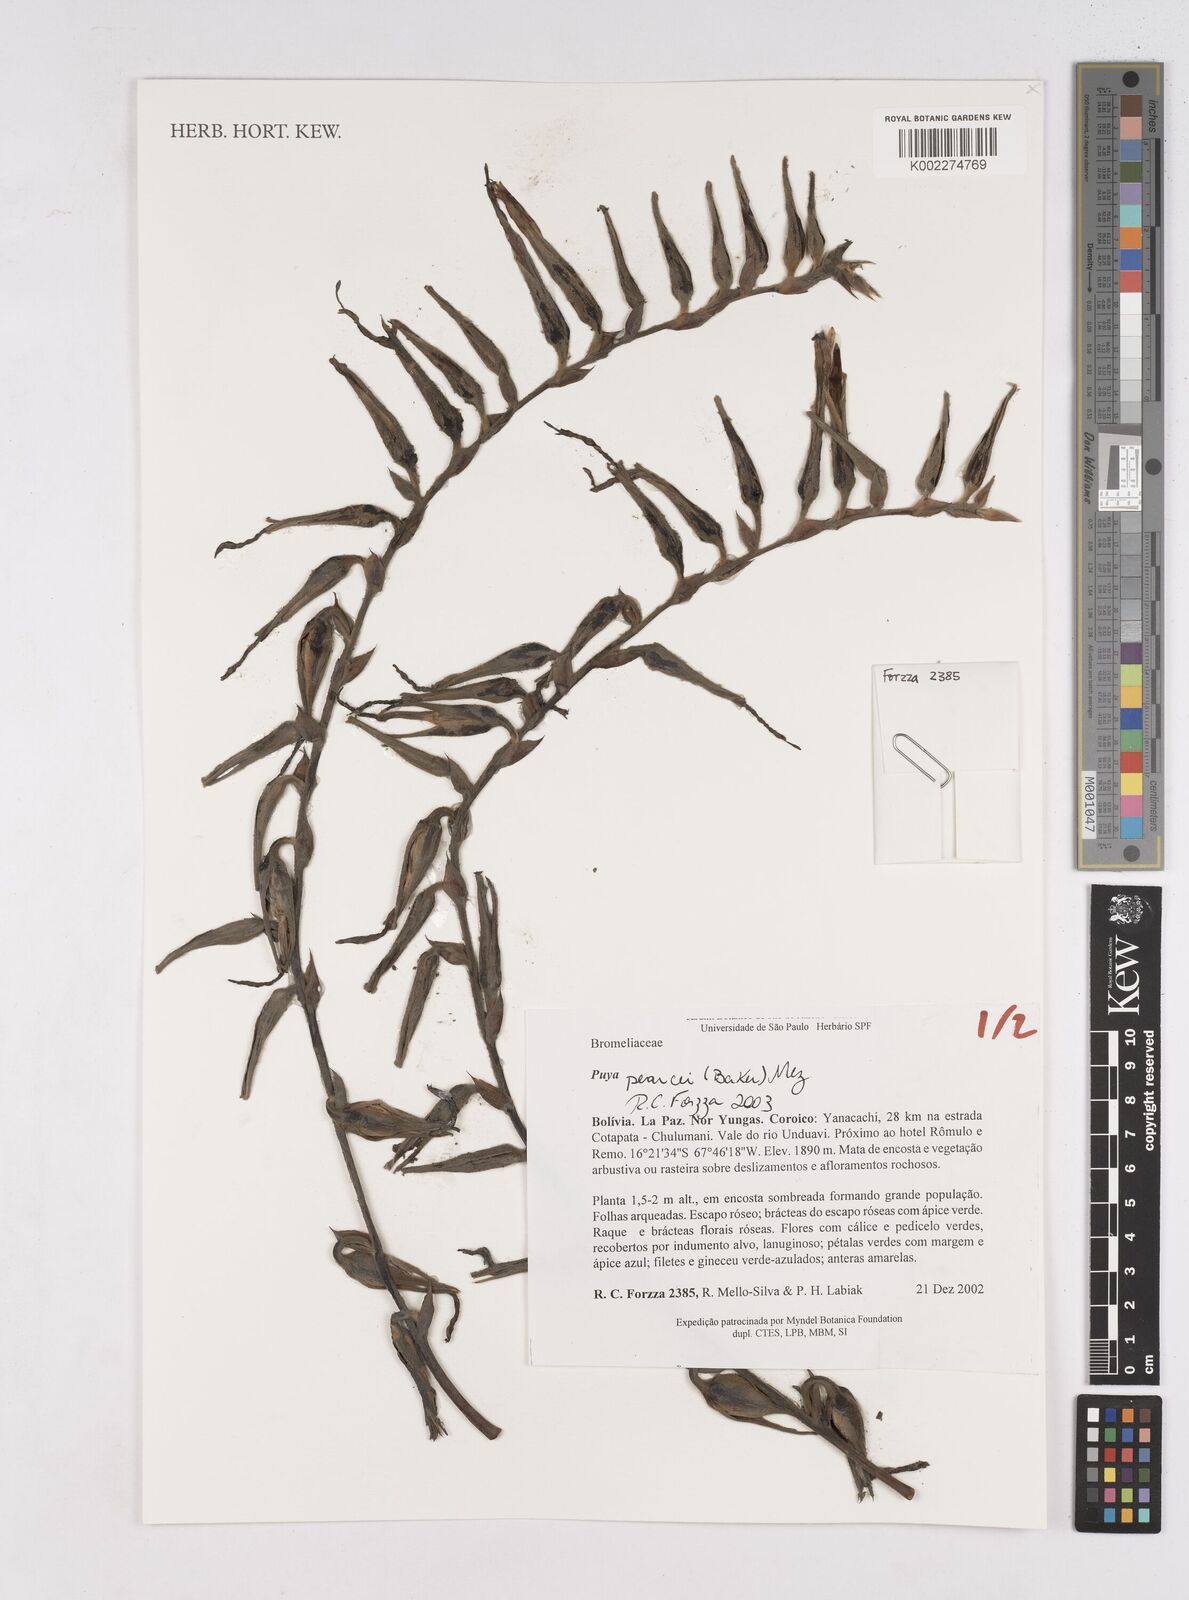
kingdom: Plantae
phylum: Tracheophyta
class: Liliopsida
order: Poales
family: Bromeliaceae
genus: Puya
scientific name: Puya pearcei
